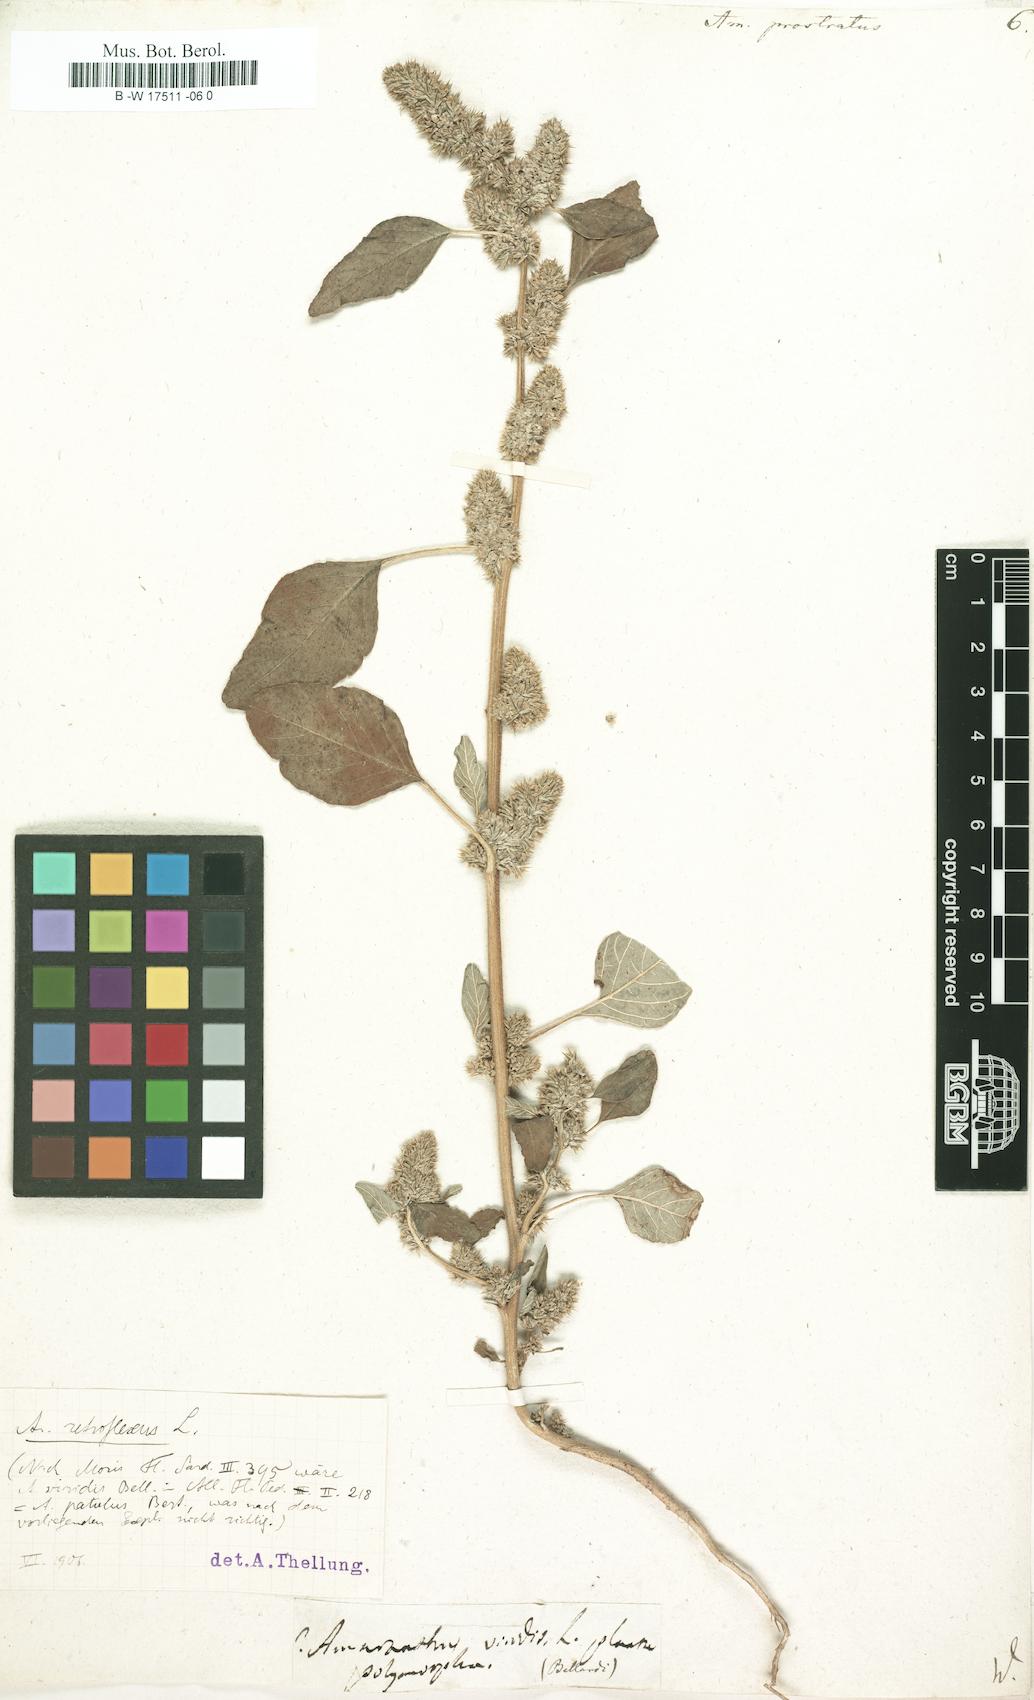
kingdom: Plantae
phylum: Tracheophyta
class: Magnoliopsida
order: Caryophyllales
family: Amaranthaceae
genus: Amaranthus
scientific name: Amaranthus deflexus
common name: Perennial pigweed
